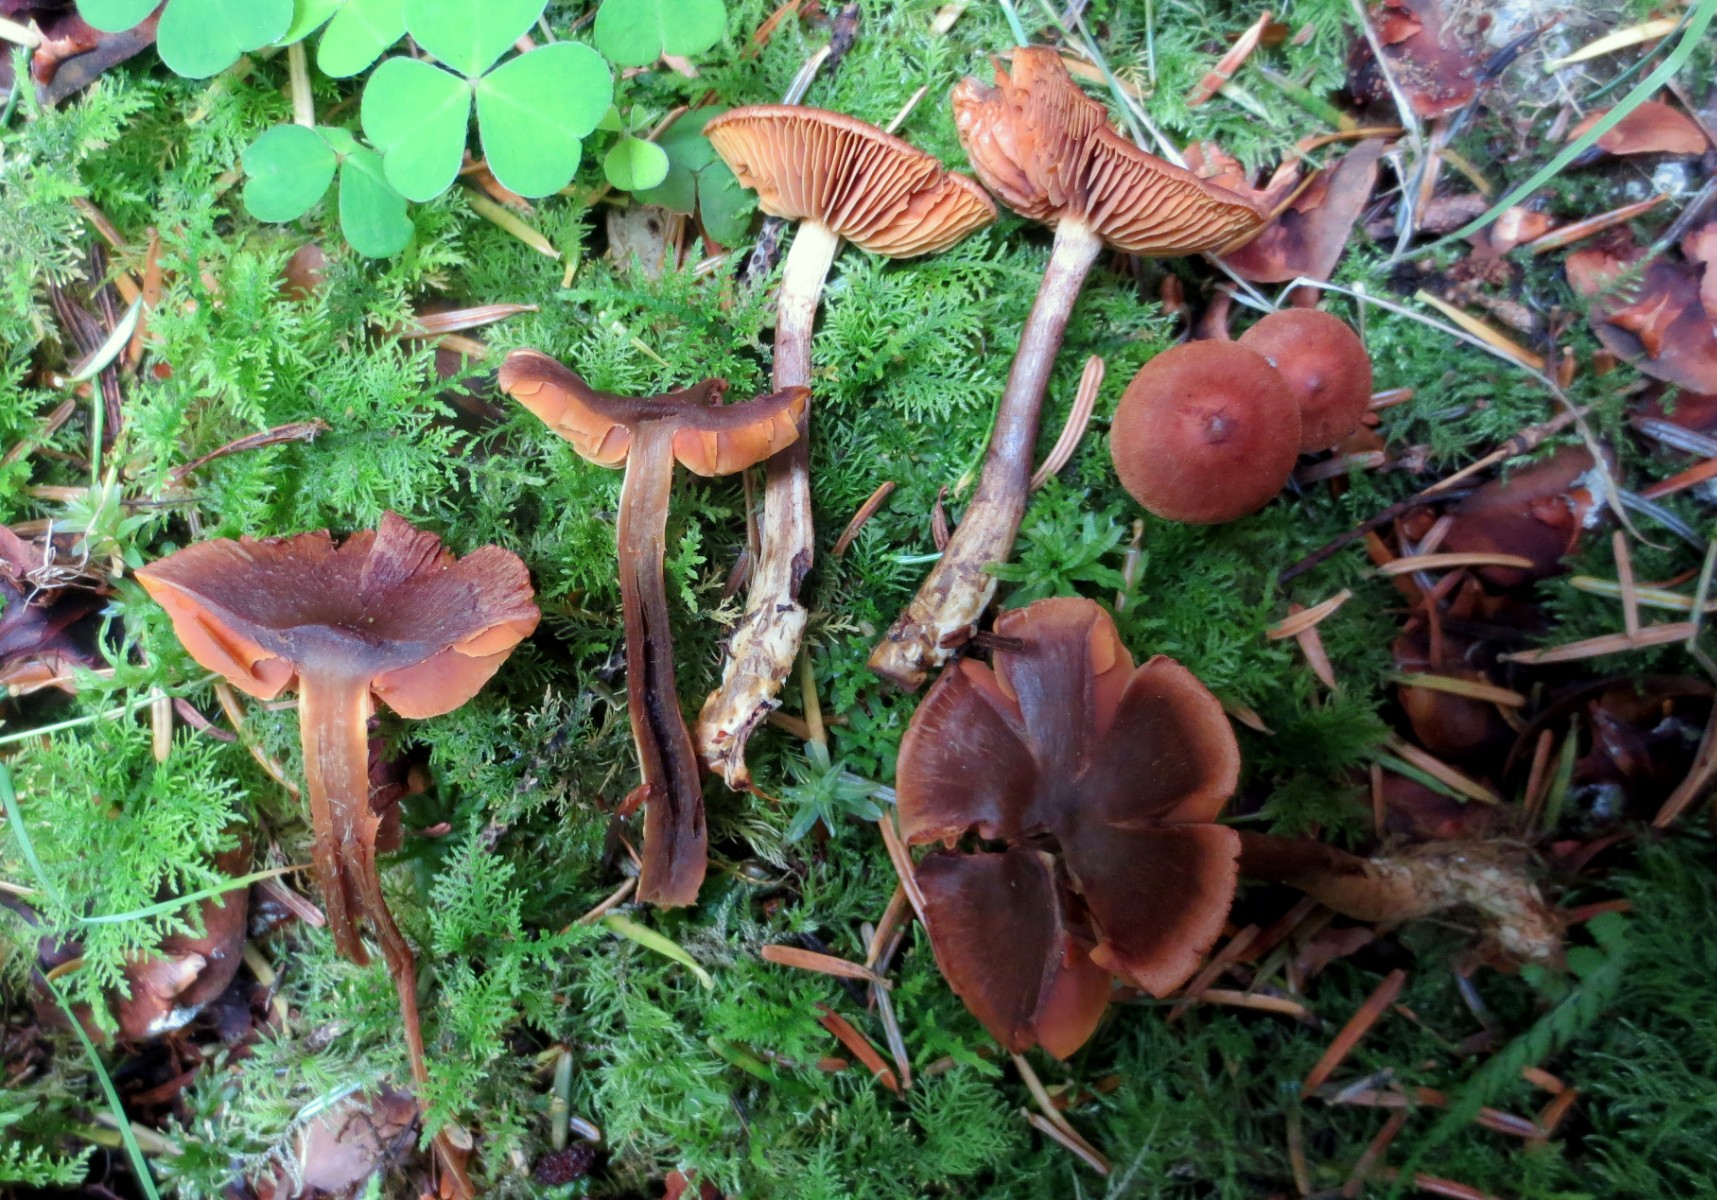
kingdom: Fungi
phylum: Basidiomycota
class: Agaricomycetes
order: Agaricales
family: Cortinariaceae
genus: Cortinarius
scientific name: Cortinarius cinnamomeus
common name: kanel-slørhat
